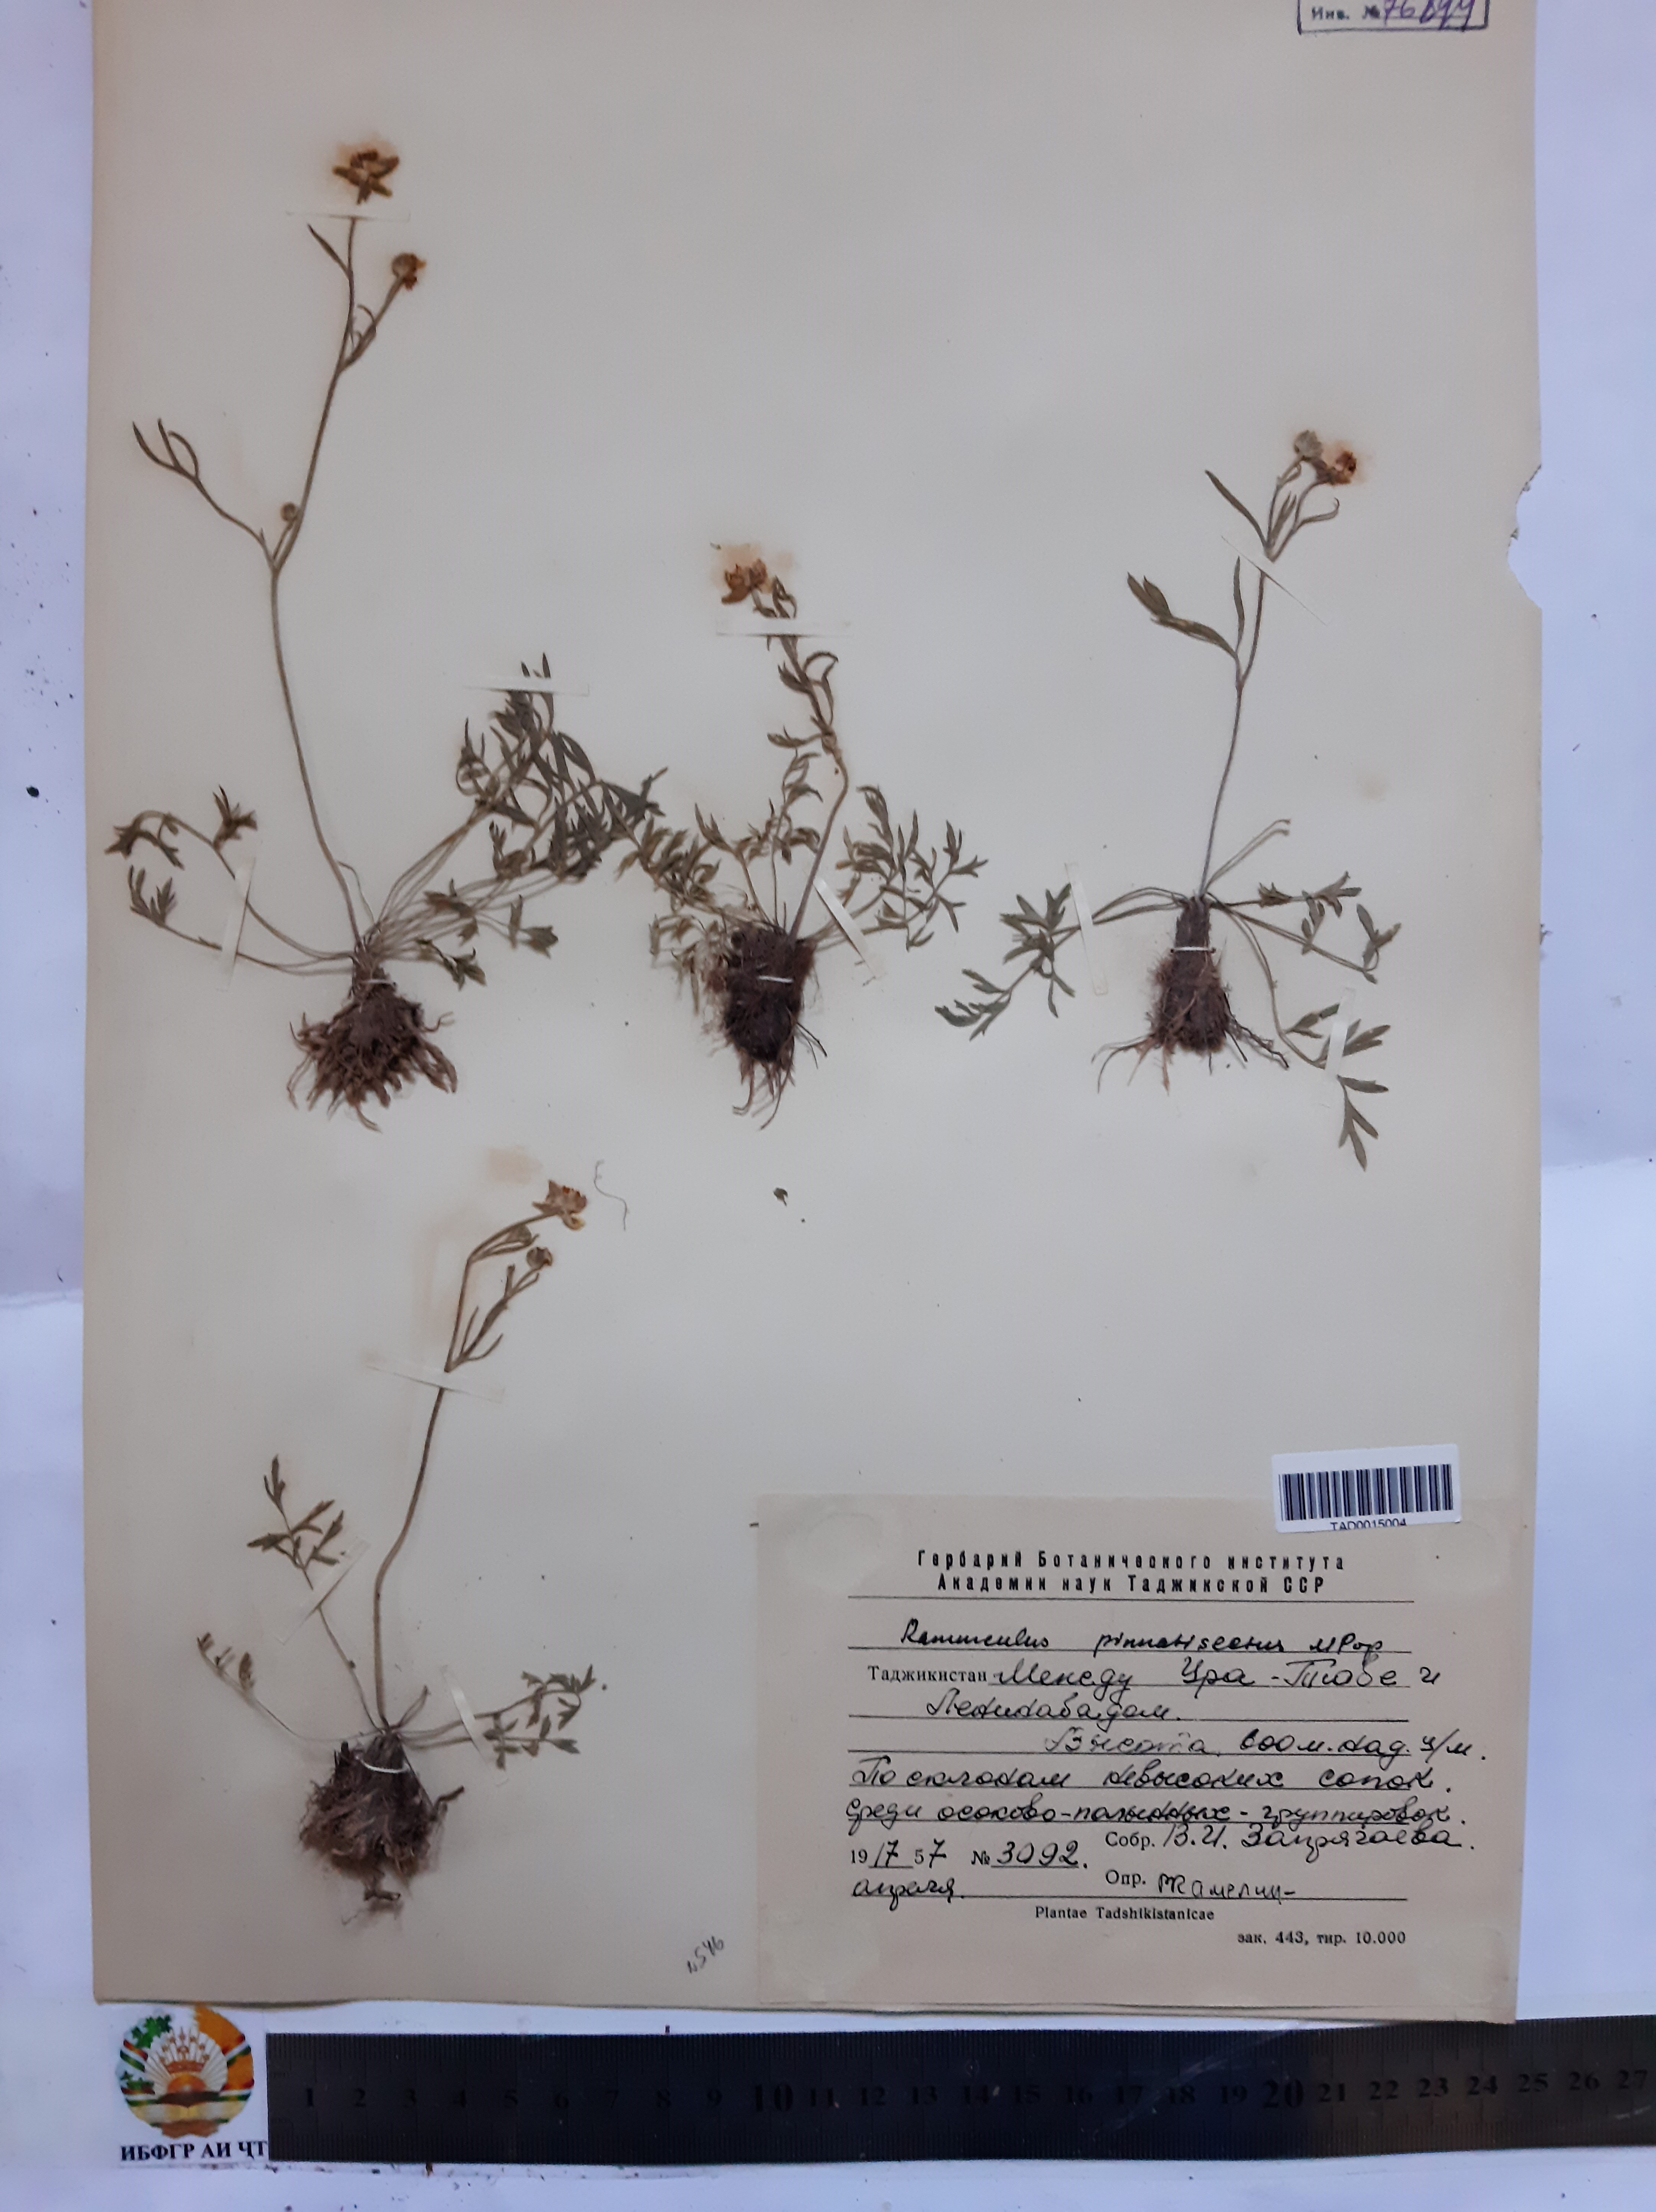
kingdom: Plantae
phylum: Tracheophyta
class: Magnoliopsida
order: Ranunculales
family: Ranunculaceae
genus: Ranunculus
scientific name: Ranunculus pinnatisectus
